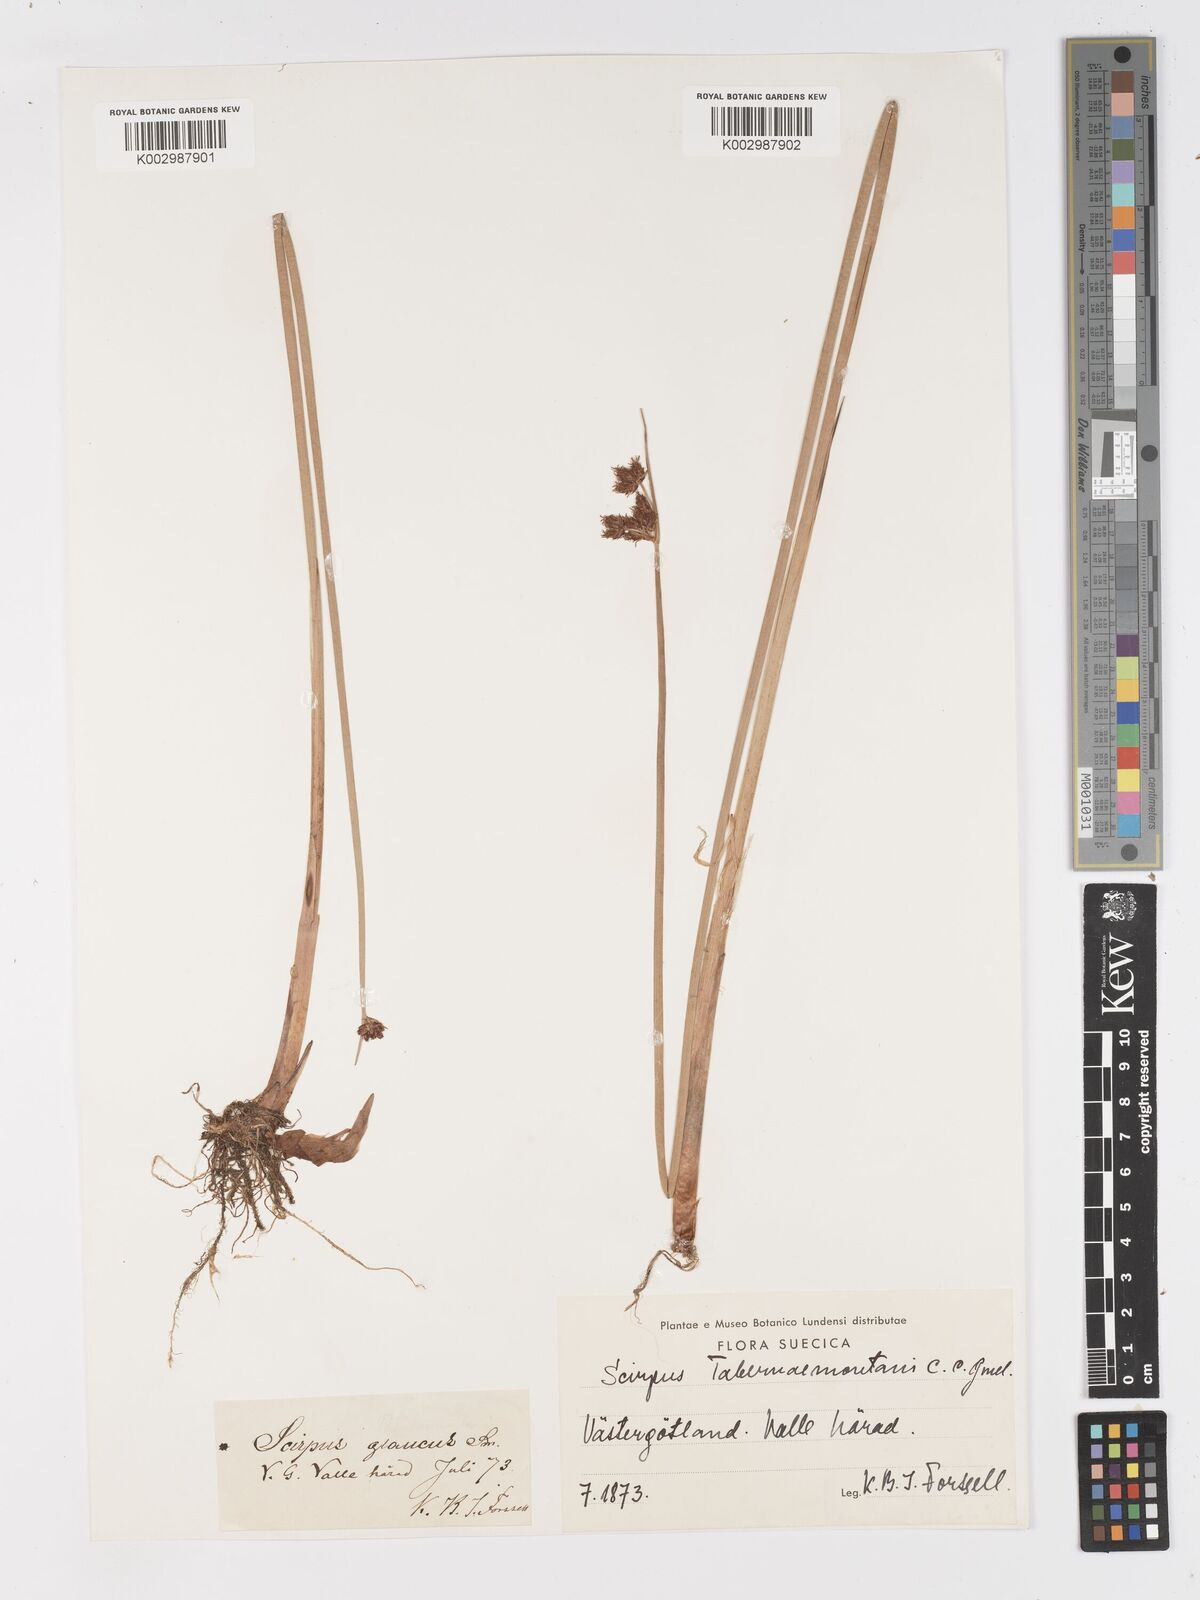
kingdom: Plantae
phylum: Tracheophyta
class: Liliopsida
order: Poales
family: Cyperaceae
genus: Schoenoplectus
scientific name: Schoenoplectus tabernaemontani
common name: Grey club-rush
